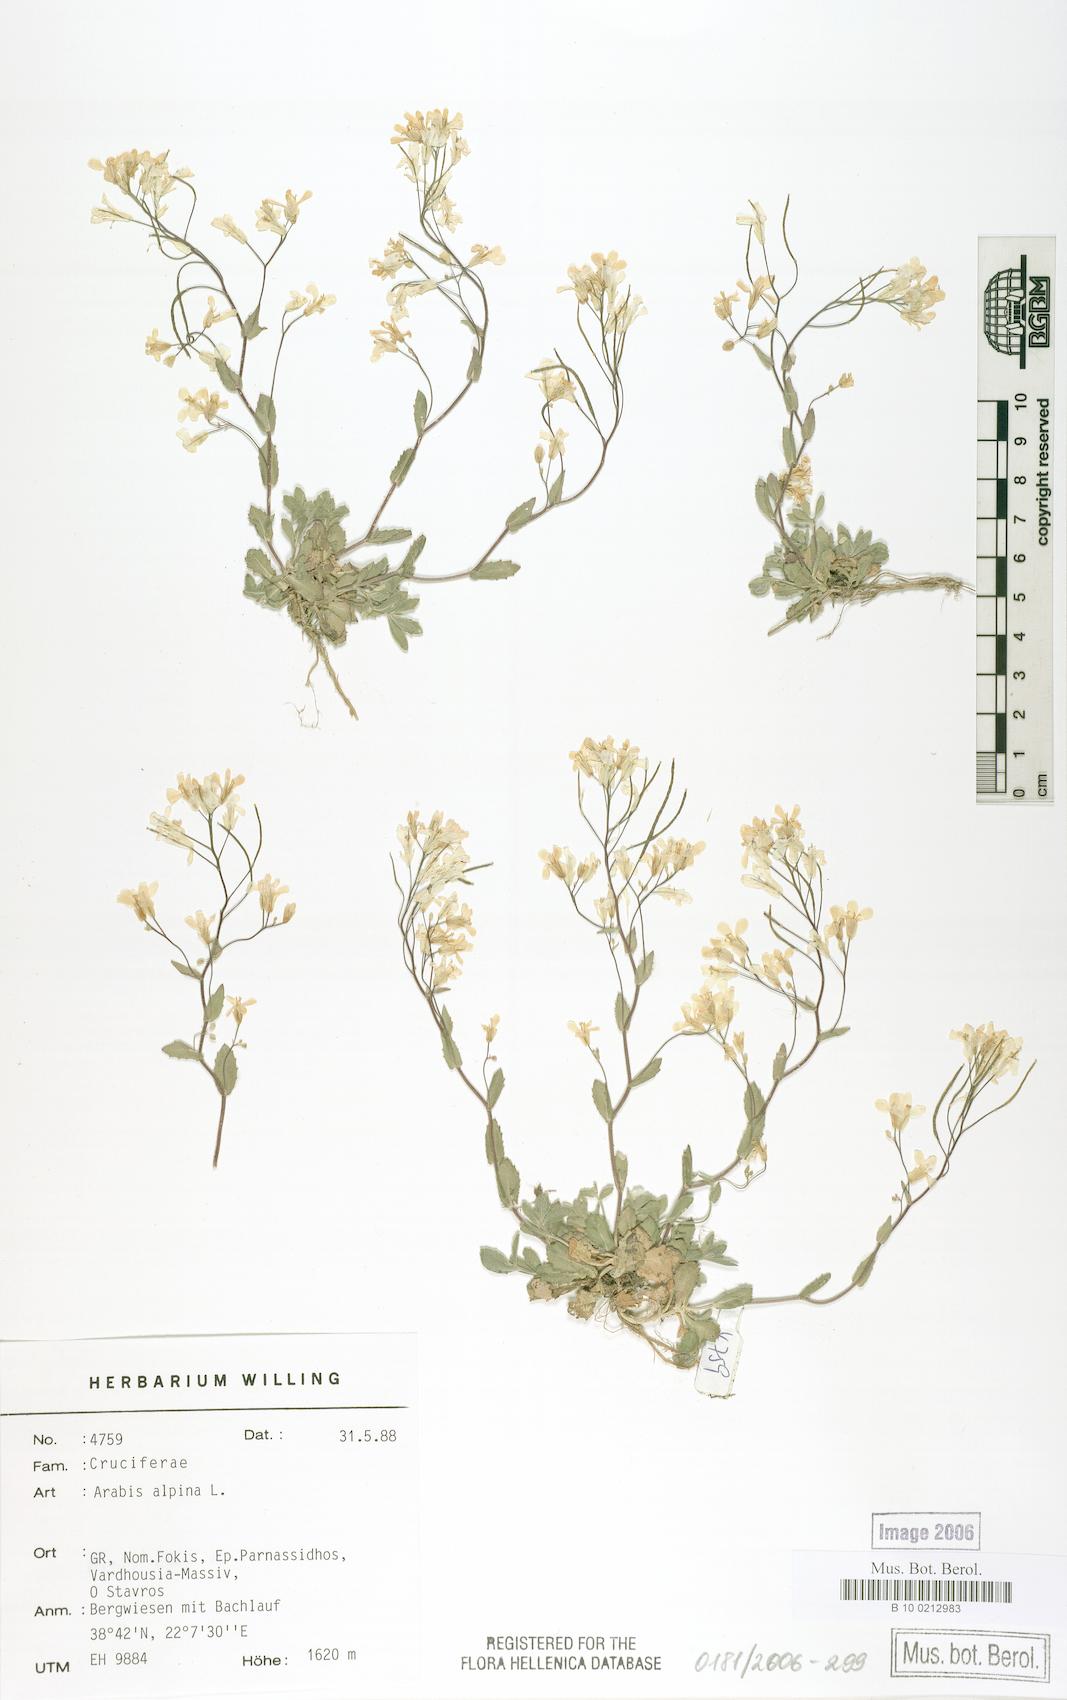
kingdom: Plantae
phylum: Tracheophyta
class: Magnoliopsida
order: Brassicales
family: Brassicaceae
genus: Arabis
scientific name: Arabis alpina
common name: Alpine rock-cress
